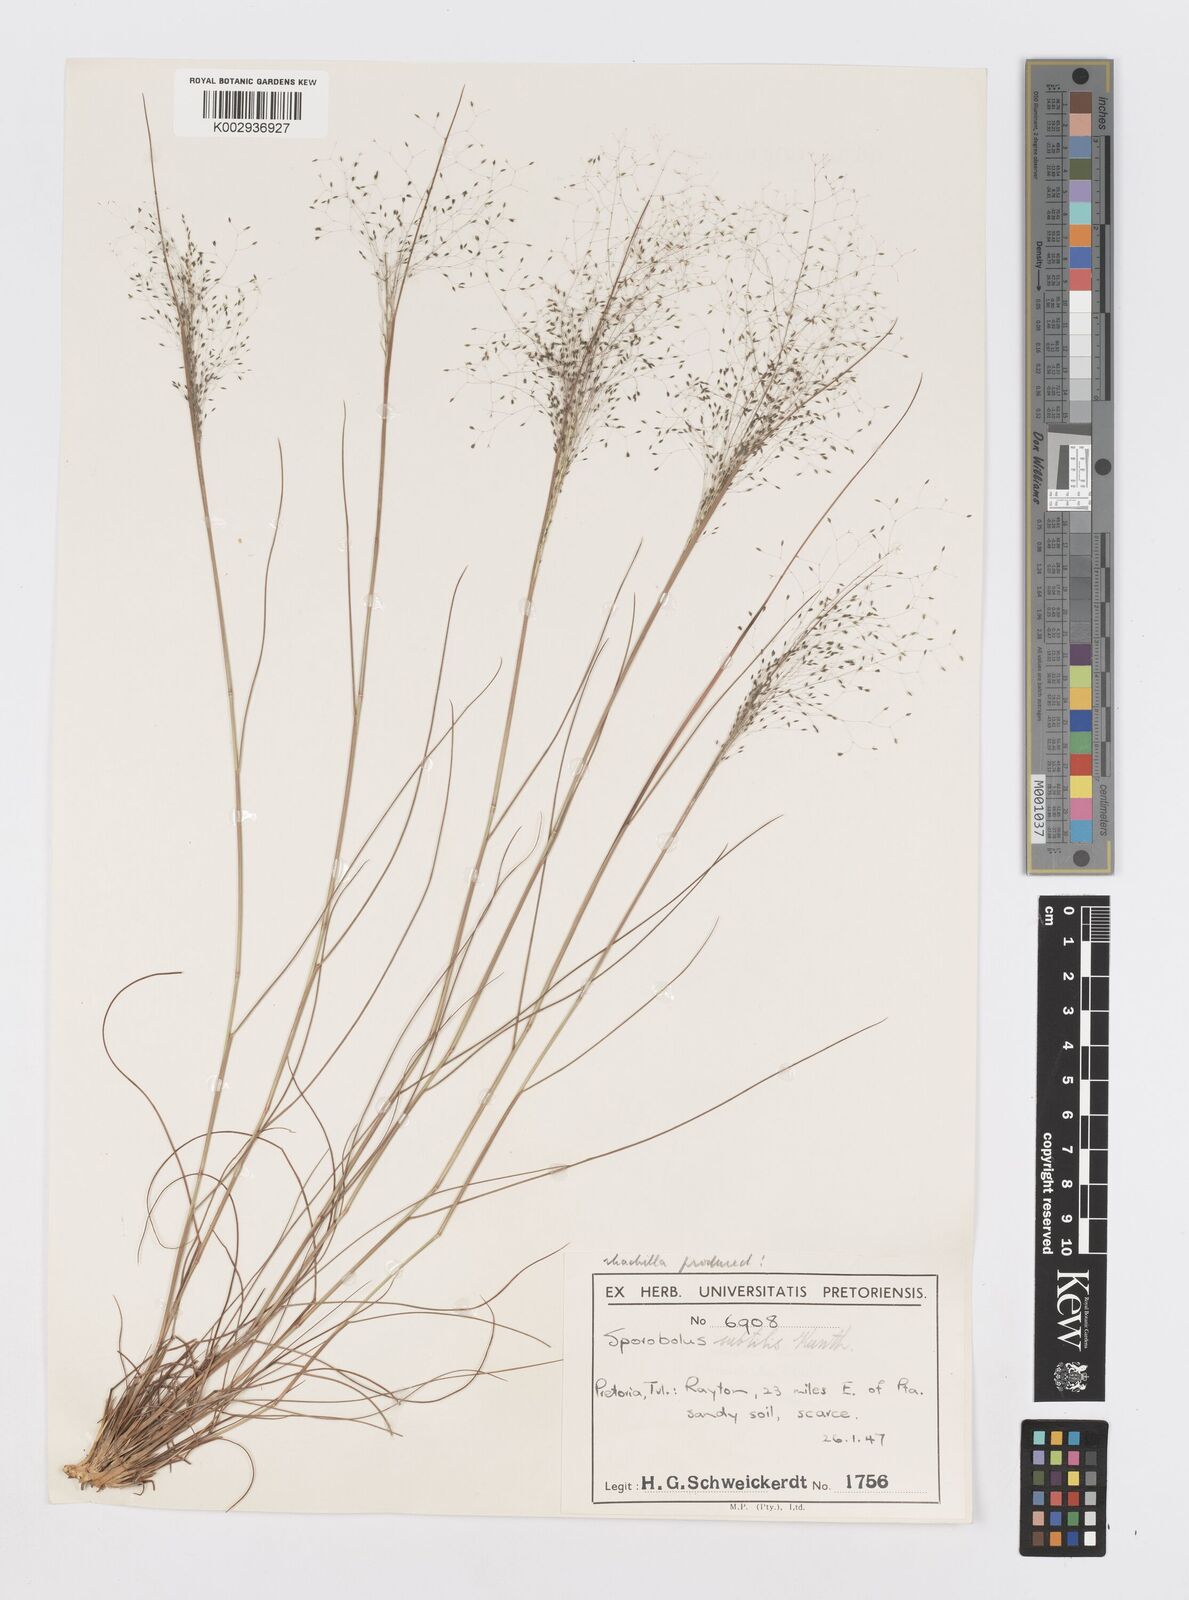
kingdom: Plantae
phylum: Tracheophyta
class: Liliopsida
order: Poales
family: Poaceae
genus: Sporobolus
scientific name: Sporobolus subtilis
